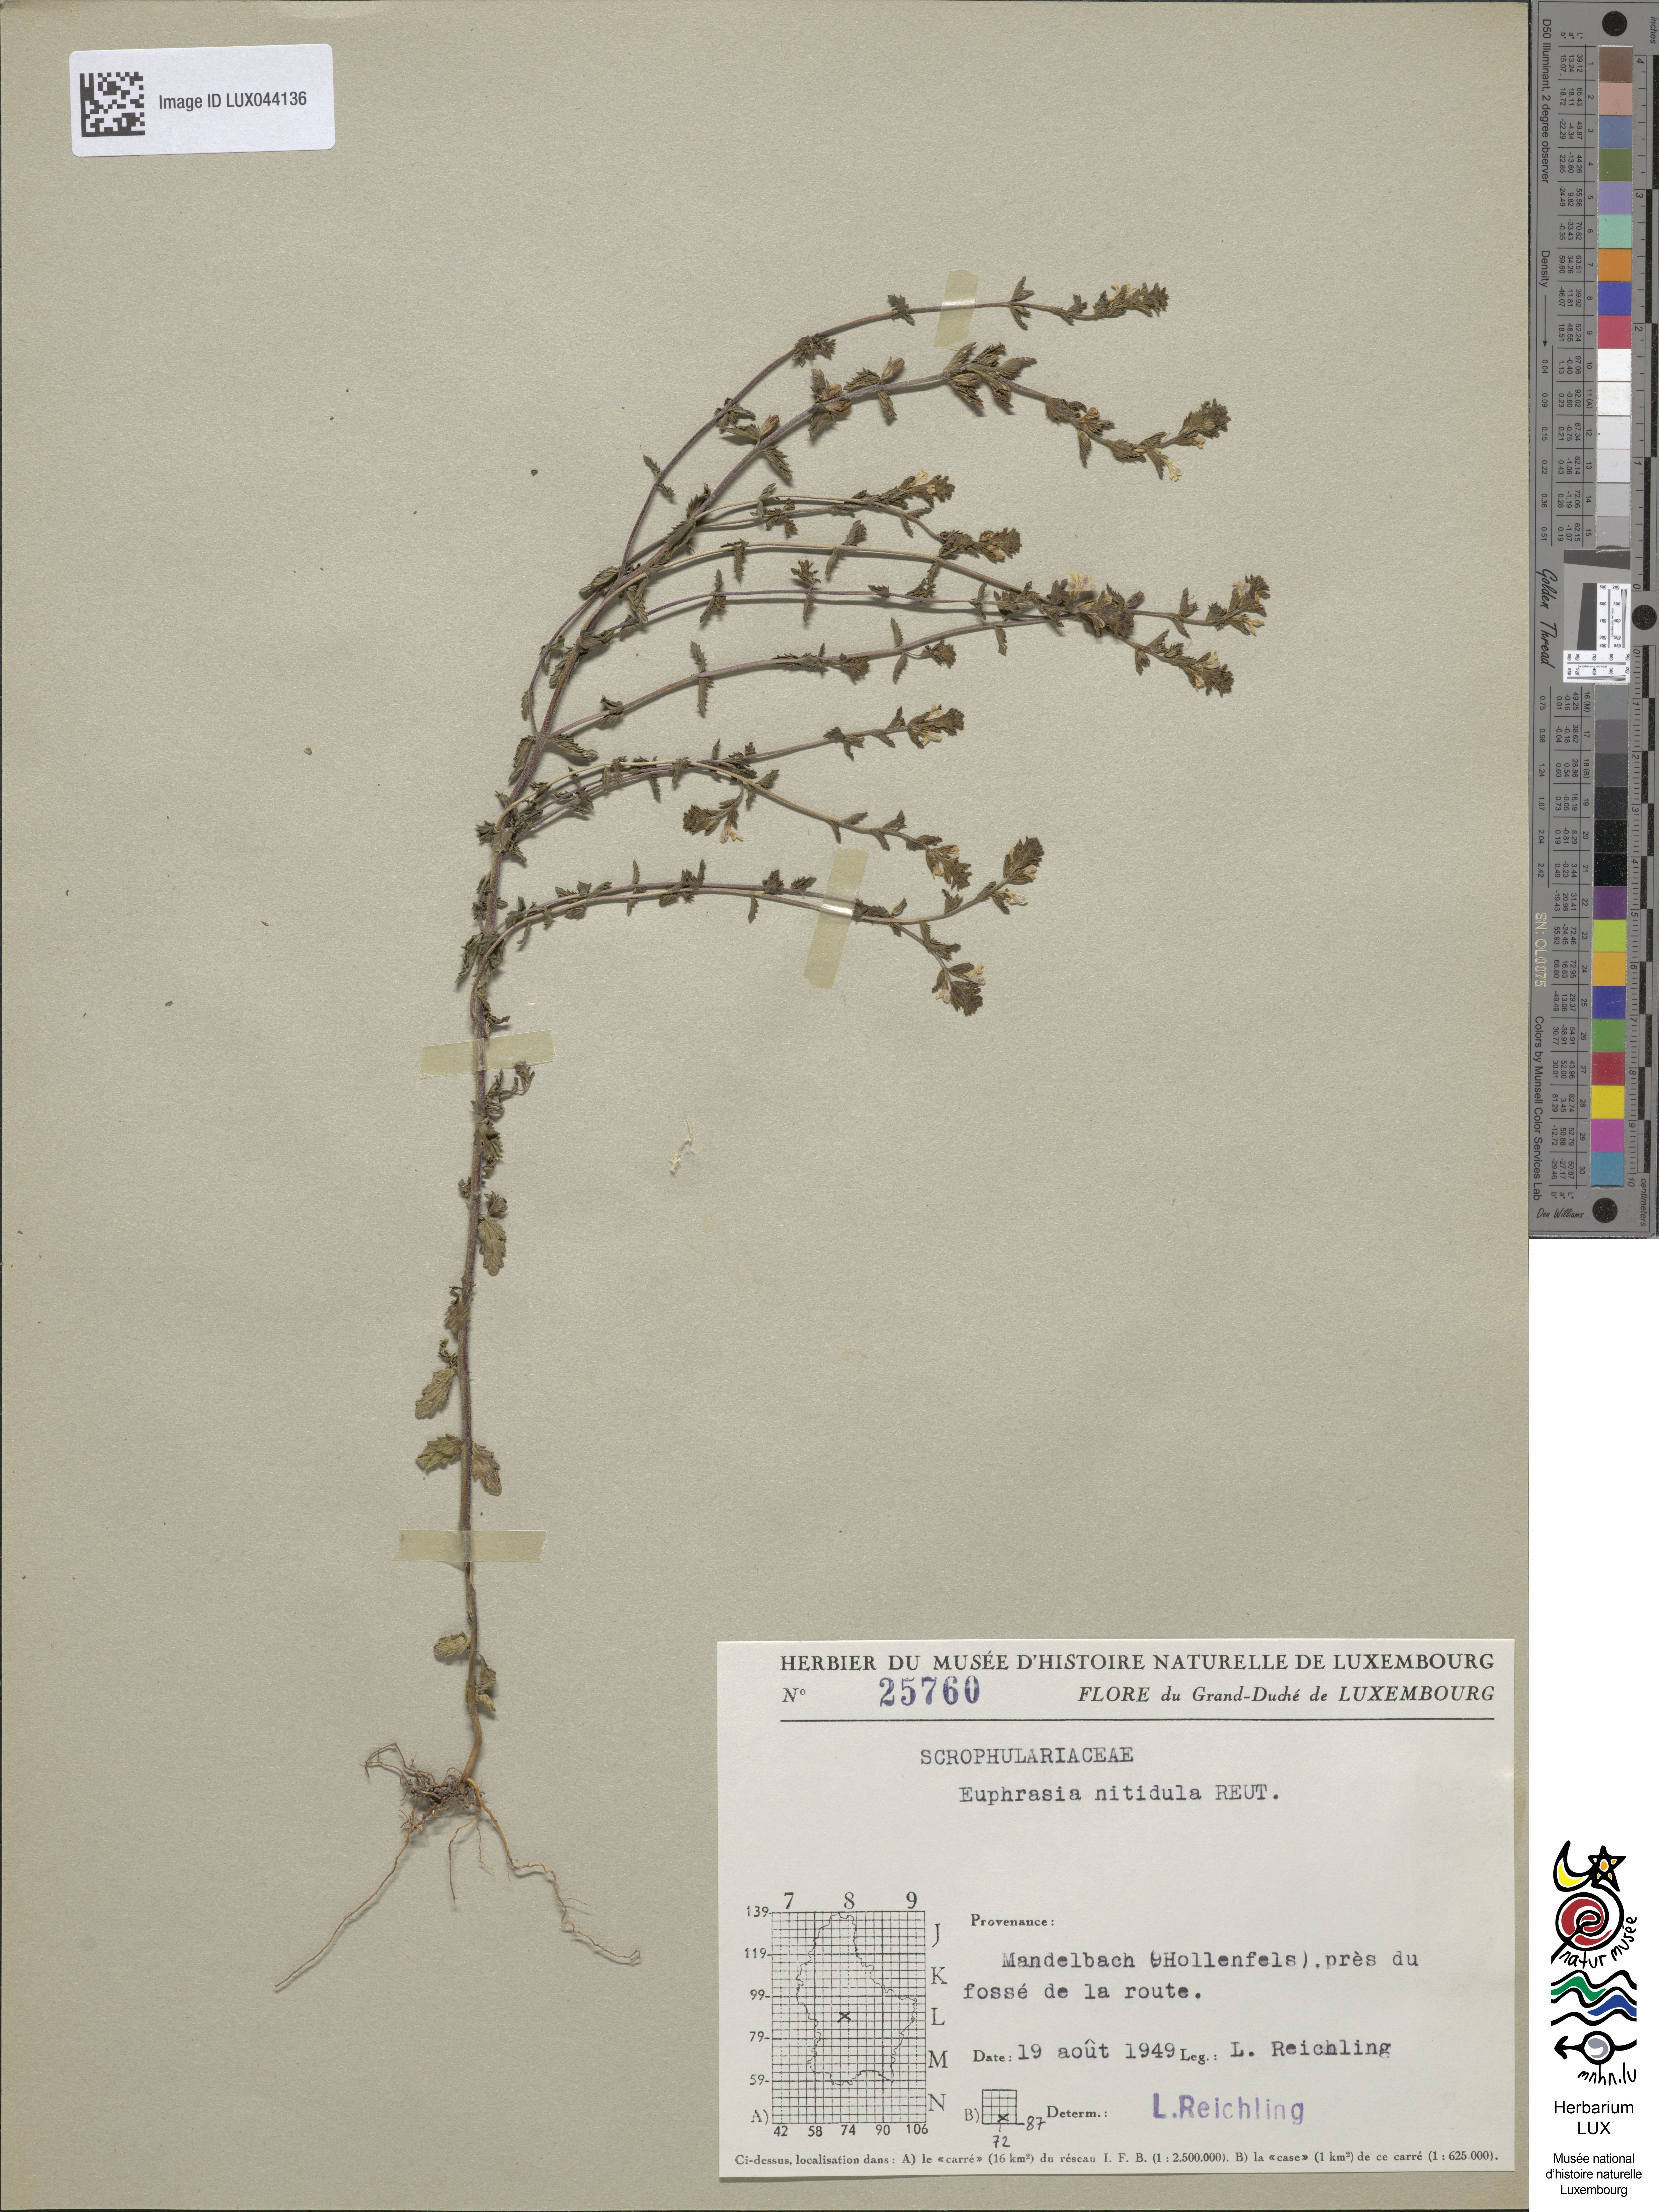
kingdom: Plantae
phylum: Tracheophyta
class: Magnoliopsida
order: Lamiales
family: Orobanchaceae
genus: Euphrasia
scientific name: Euphrasia nemorosa
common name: Common eyebright
